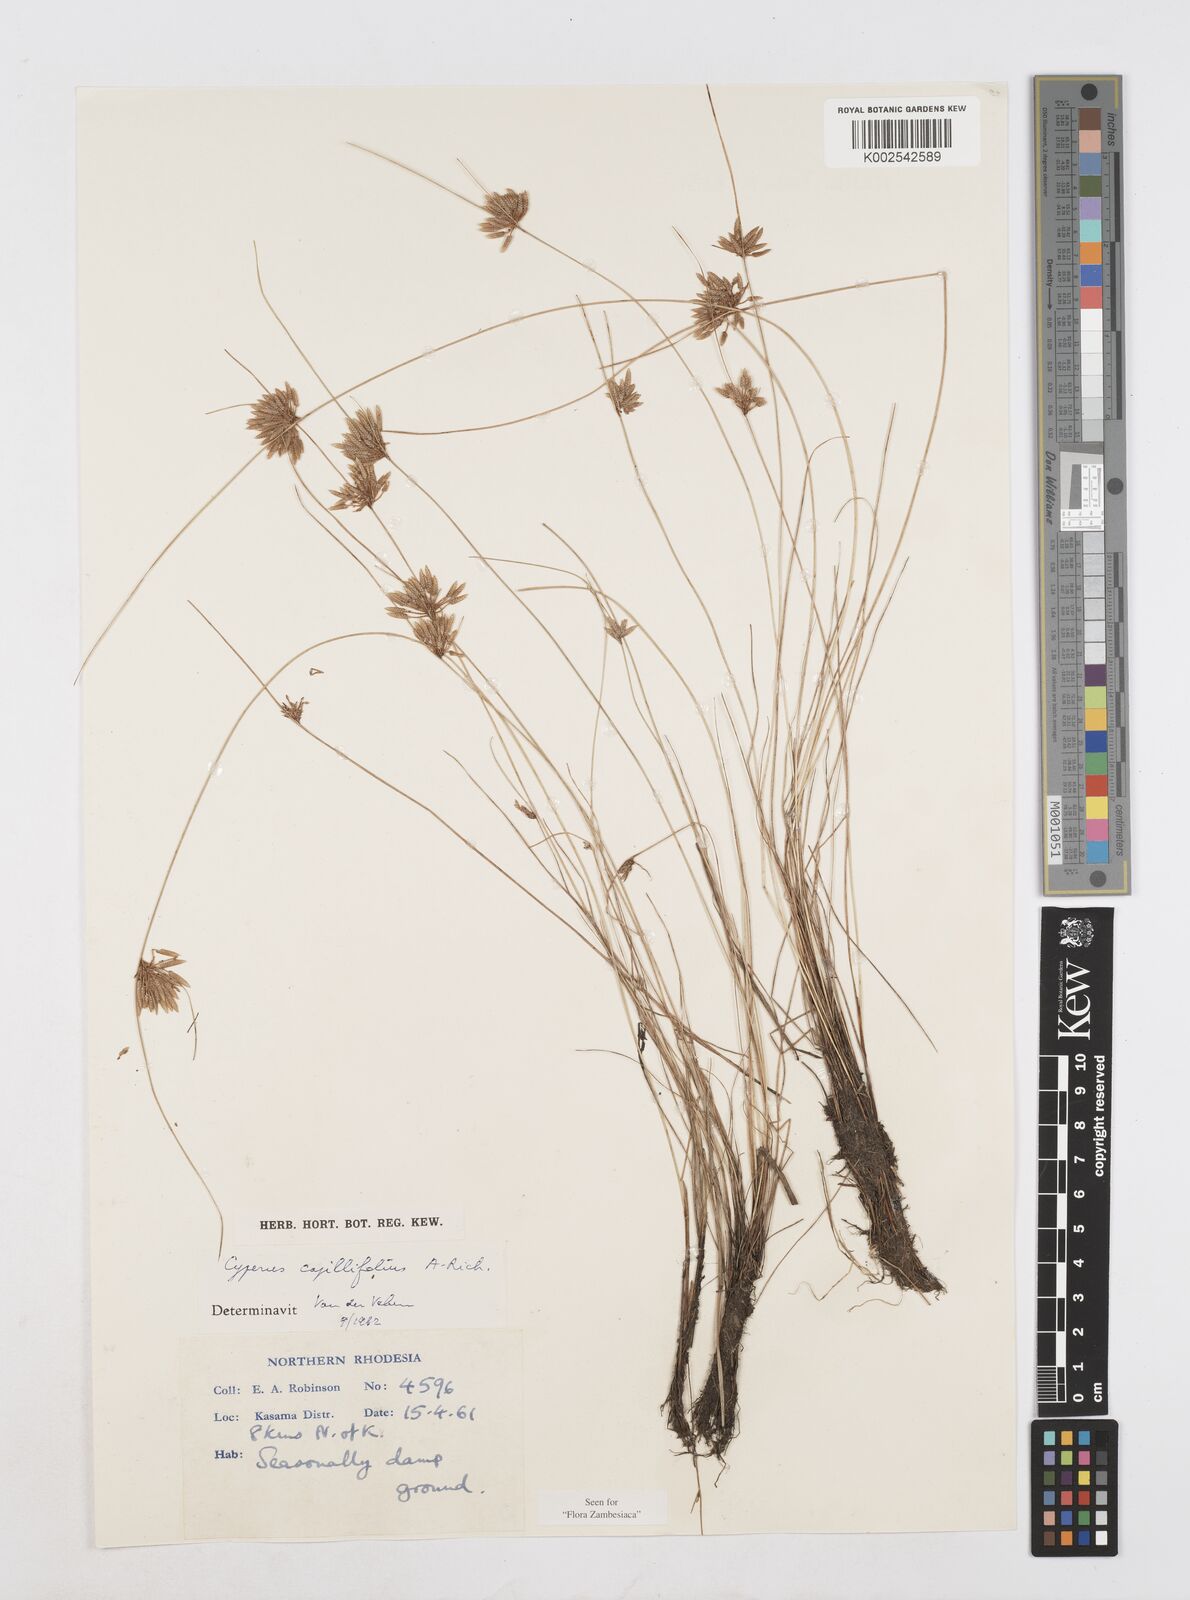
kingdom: Plantae
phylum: Tracheophyta
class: Liliopsida
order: Poales
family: Cyperaceae
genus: Cyperus
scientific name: Cyperus capillifolius
